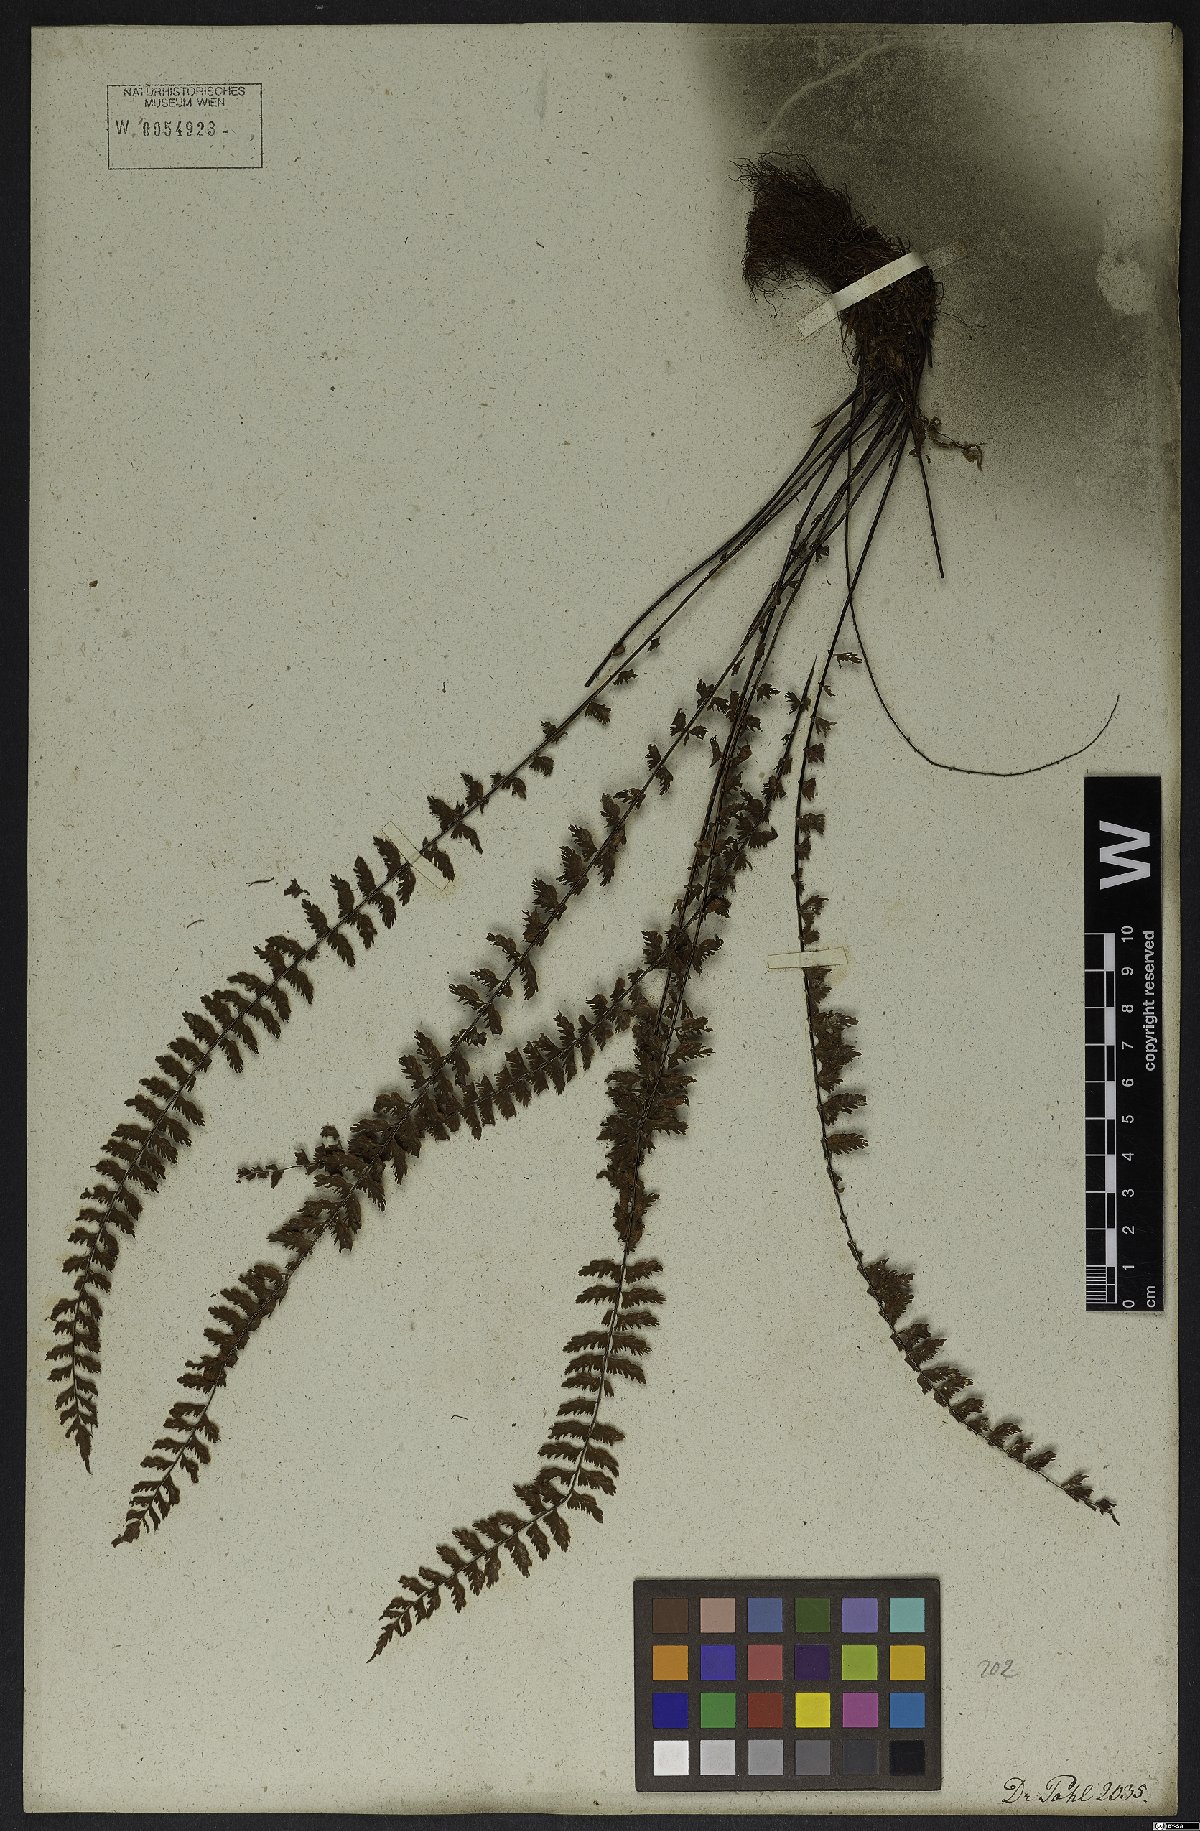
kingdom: Plantae
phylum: Tracheophyta
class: Polypodiopsida
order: Polypodiales
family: Aspleniaceae
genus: Asplenium
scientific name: Asplenium formosum
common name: Showy spleenwort
